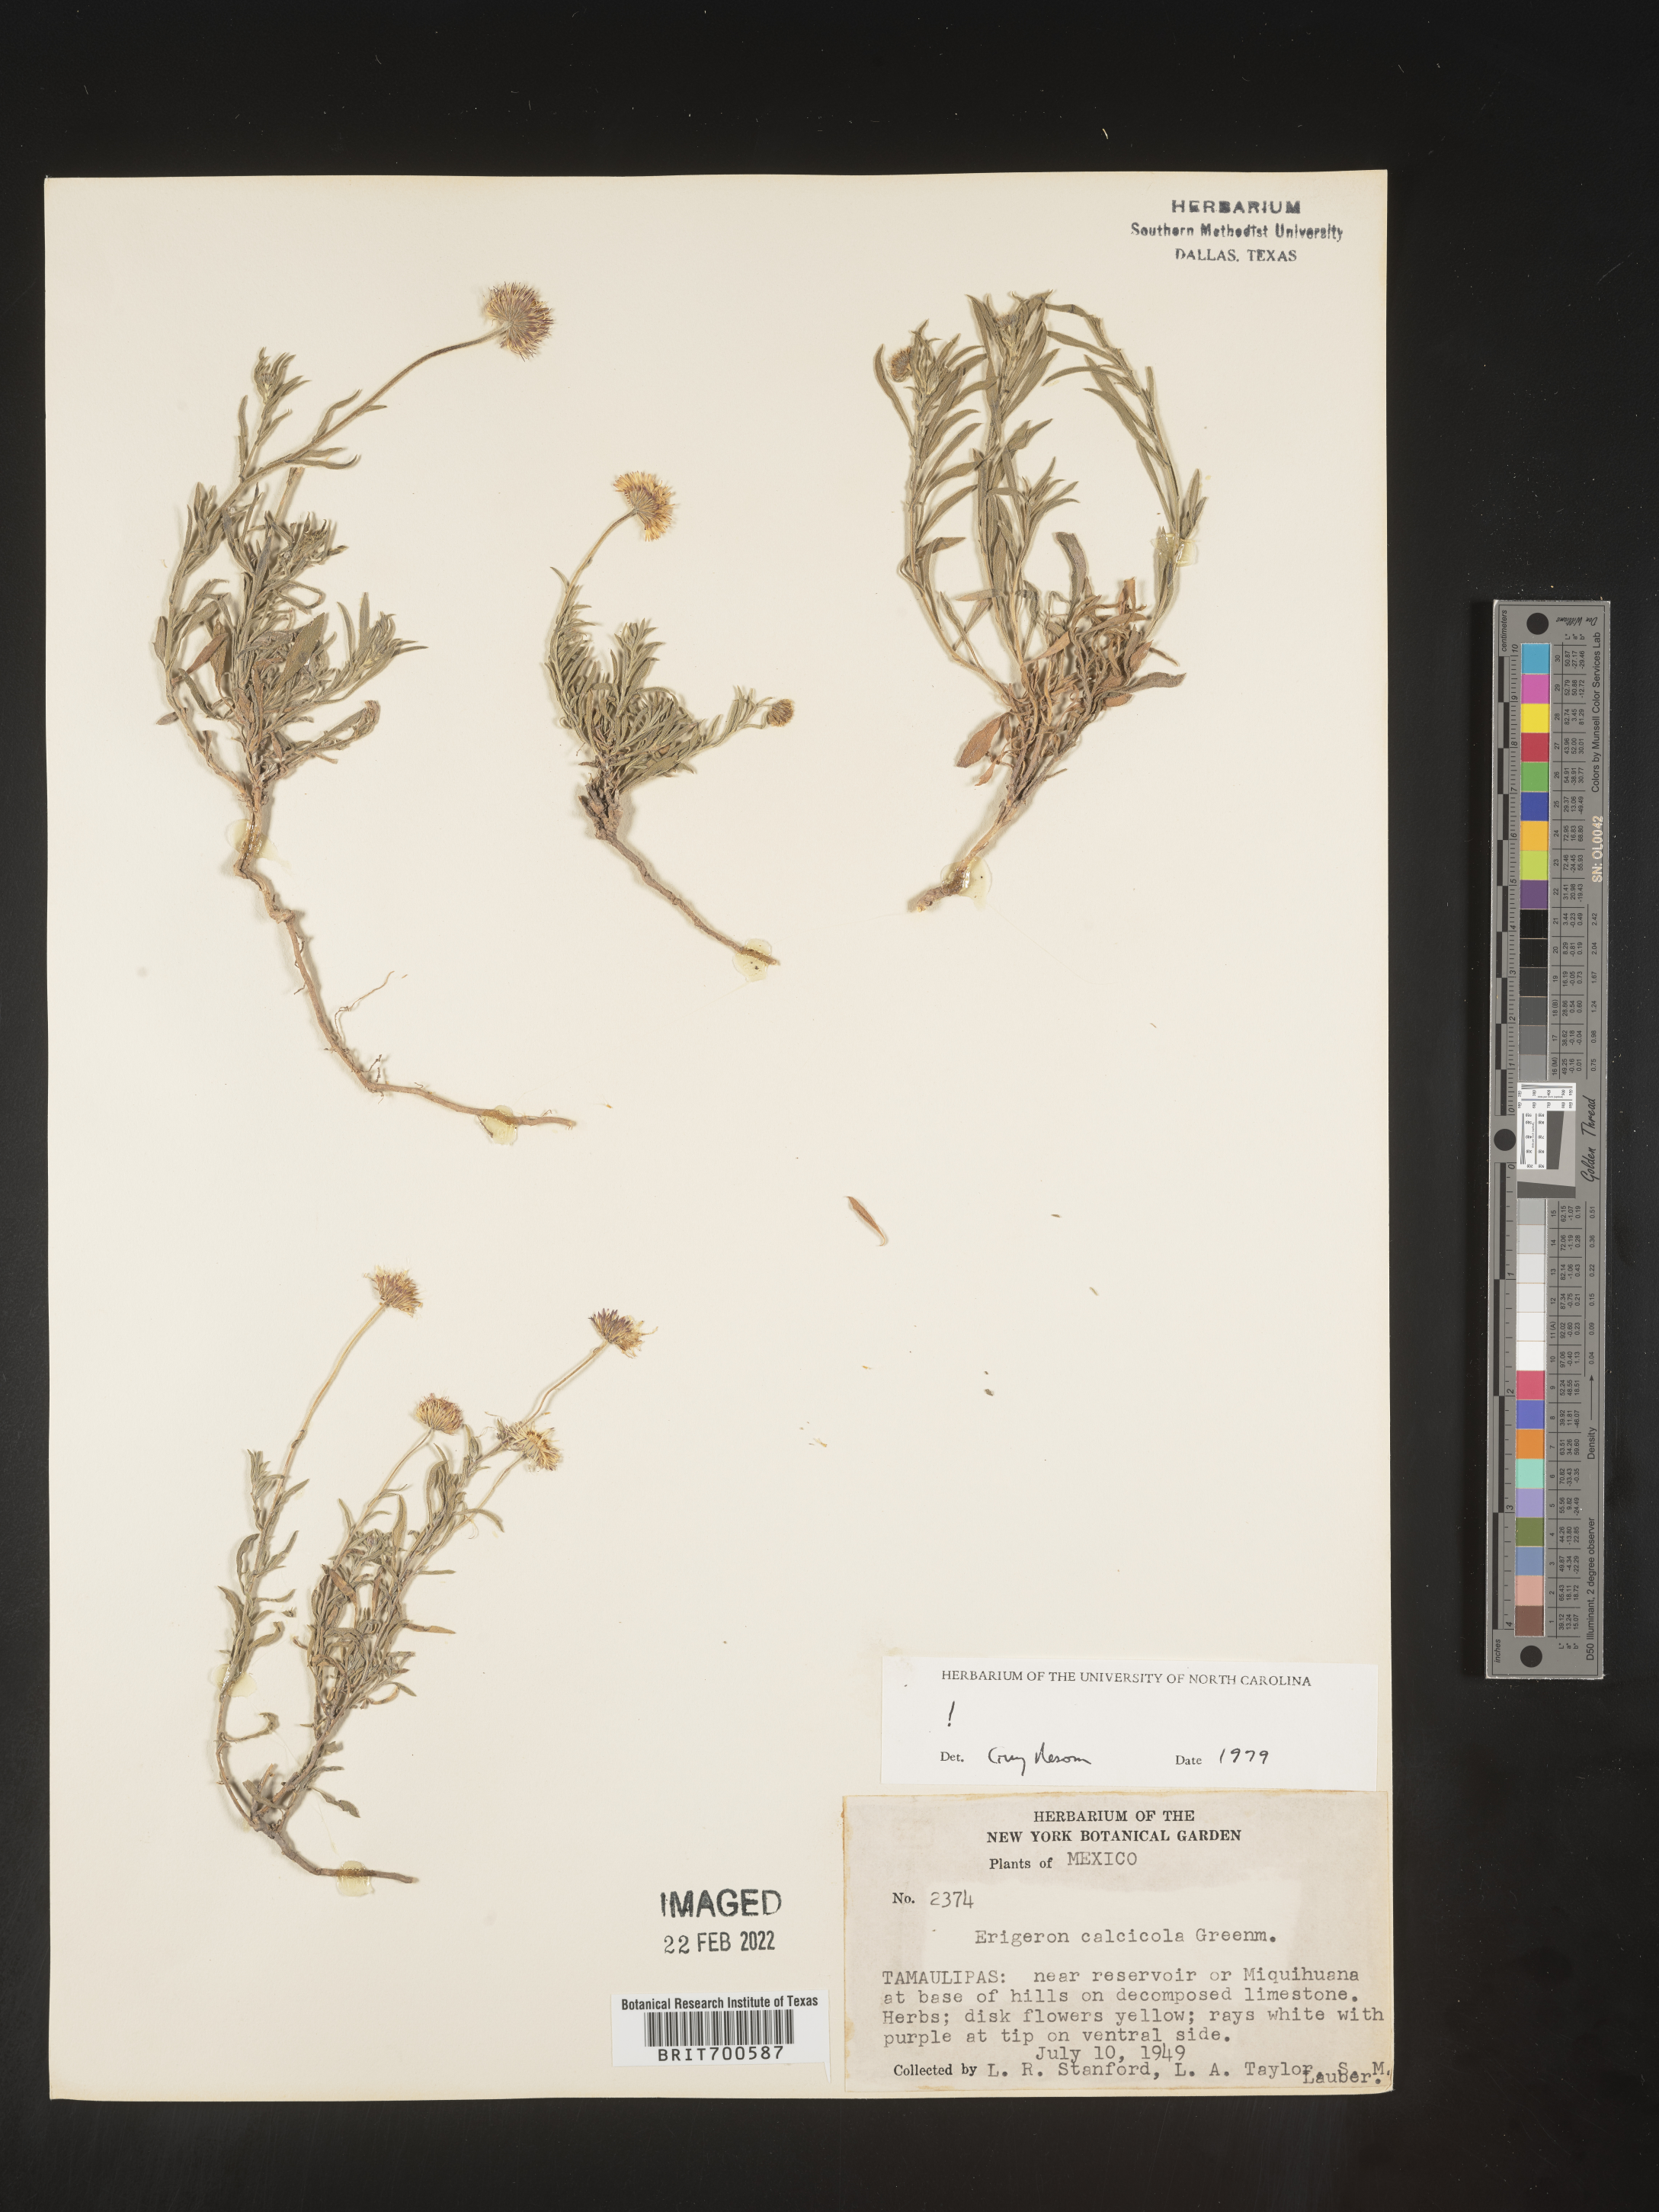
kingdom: Plantae
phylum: Tracheophyta
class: Magnoliopsida
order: Asterales
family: Asteraceae
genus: Erigeron
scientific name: Erigeron calcicola
